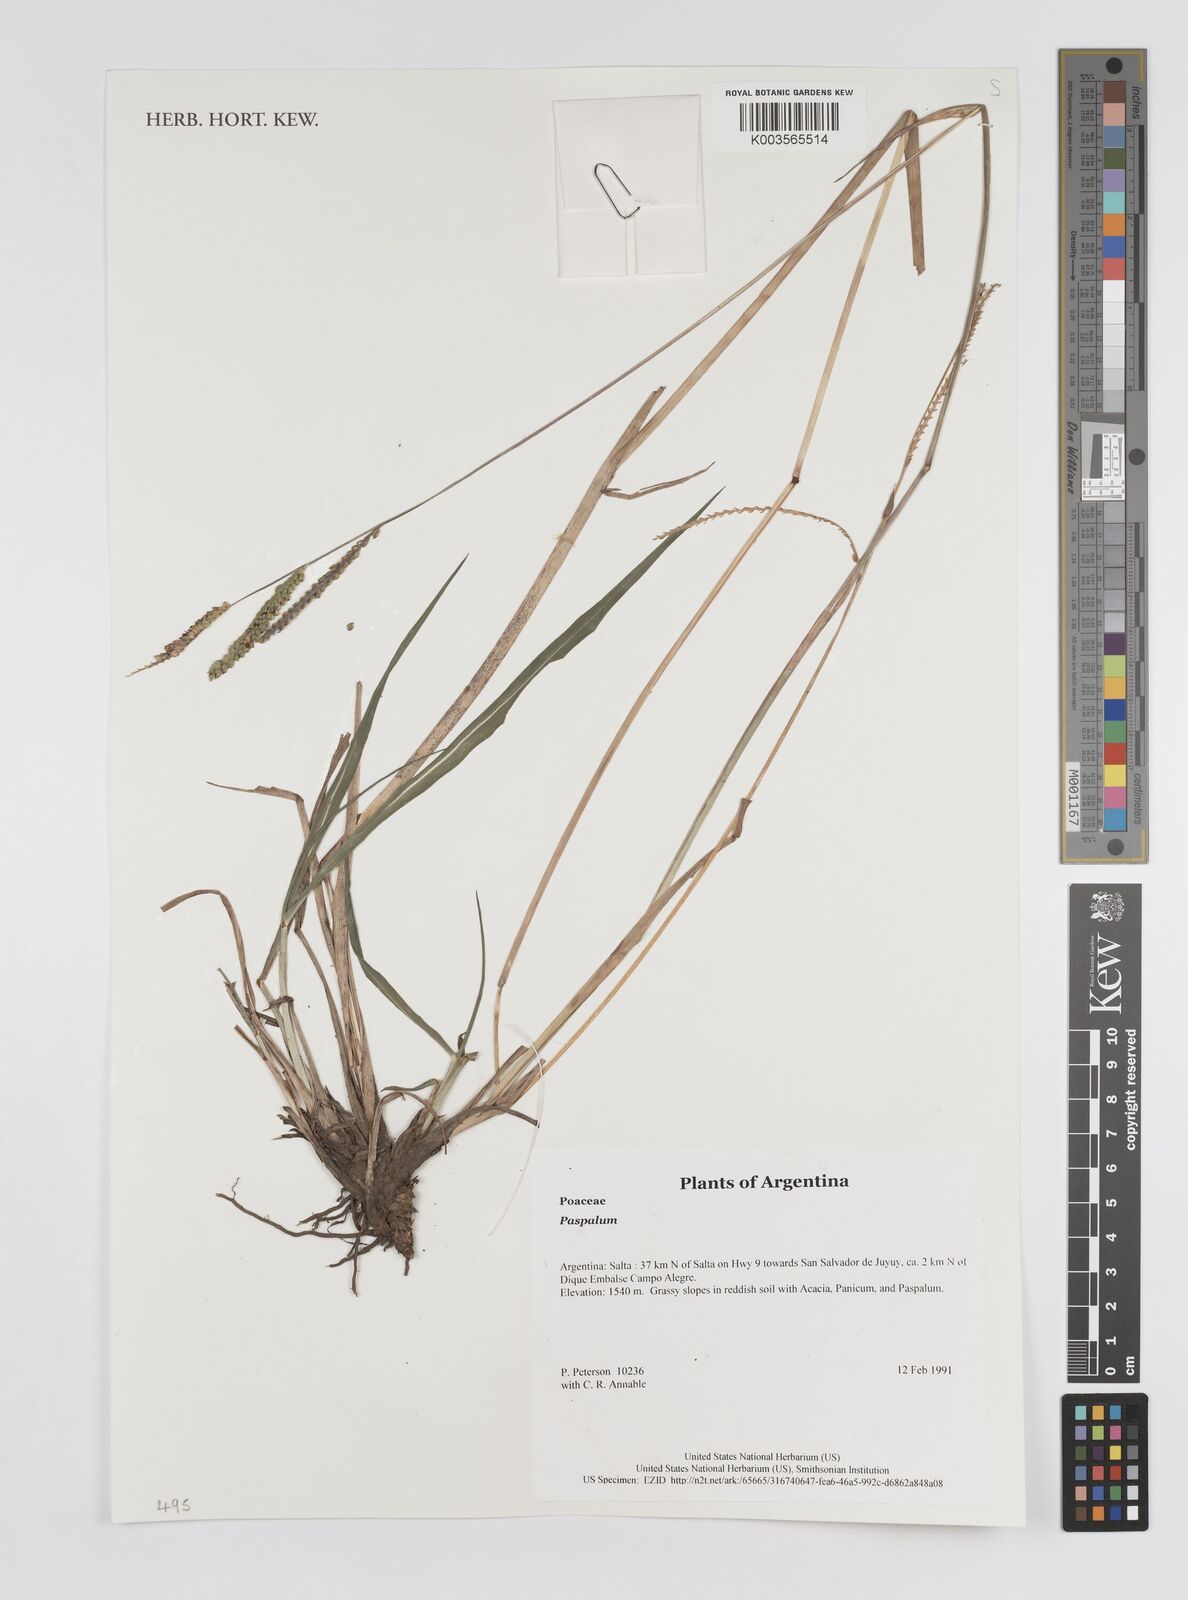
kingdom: Plantae
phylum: Tracheophyta
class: Liliopsida
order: Poales
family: Poaceae
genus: Paspalum
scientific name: Paspalum
